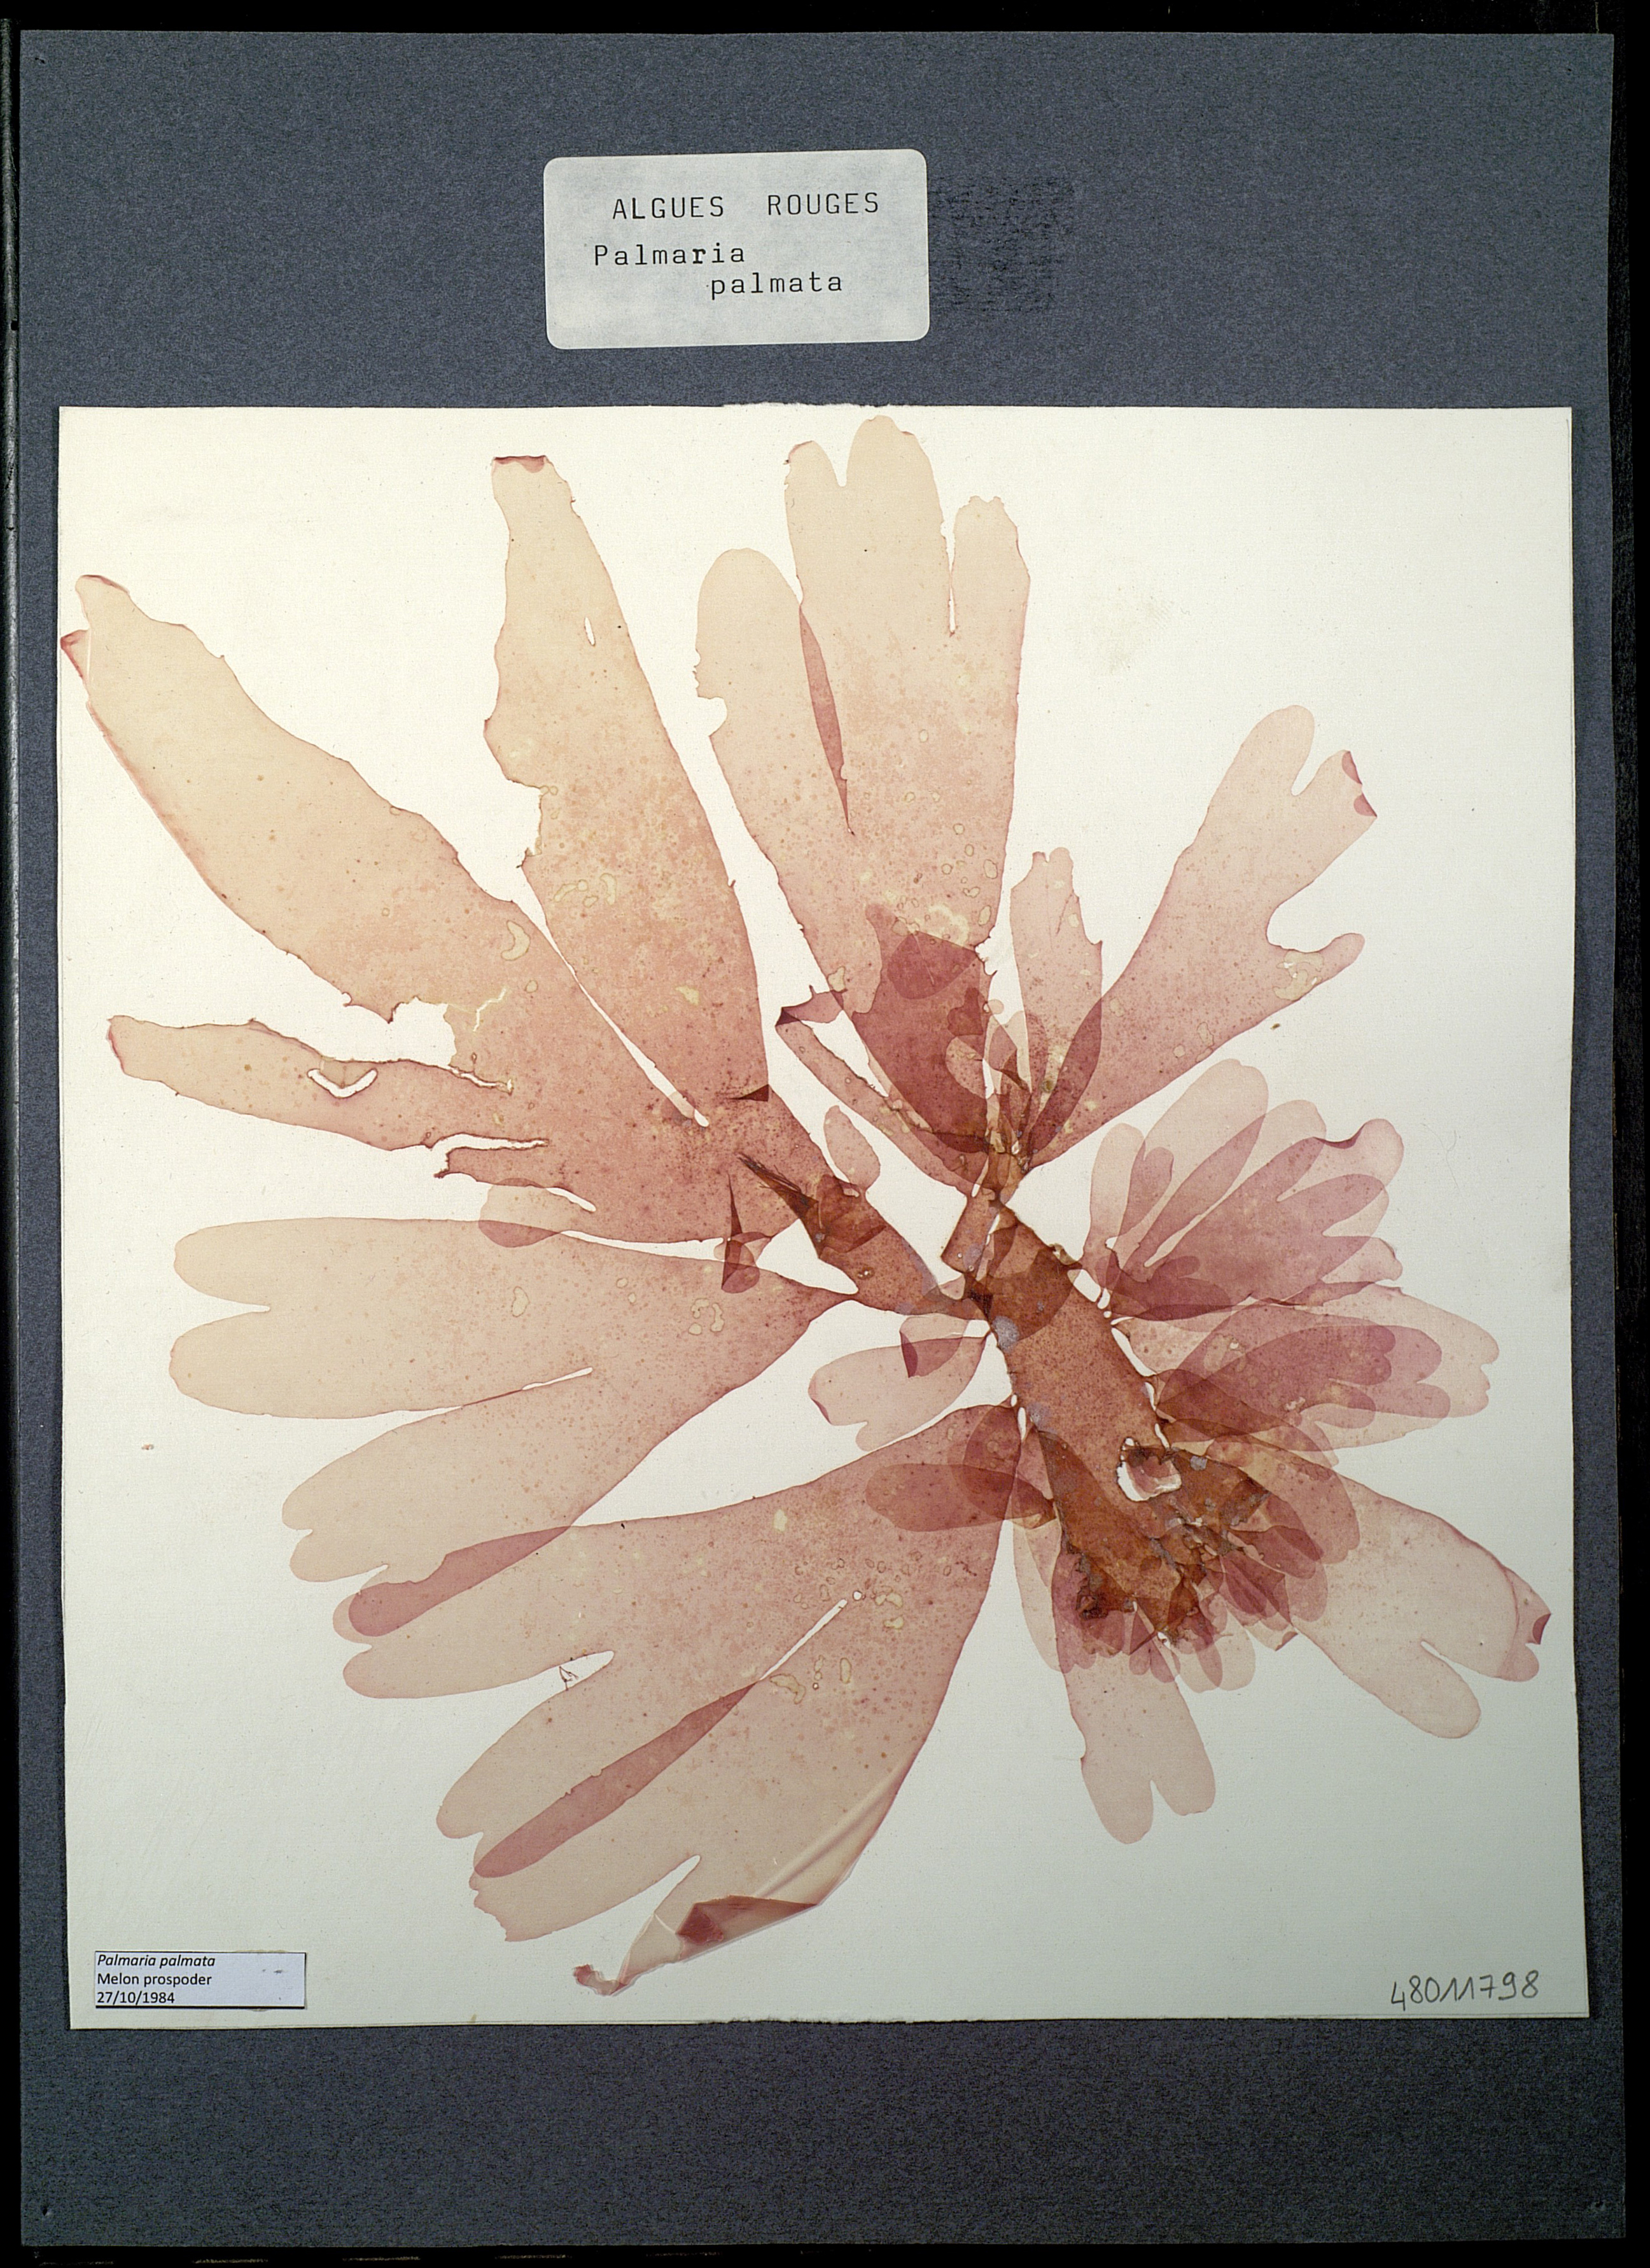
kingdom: Plantae
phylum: Rhodophyta
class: Florideophyceae
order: Palmariales
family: Palmariaceae
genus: Palmaria
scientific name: Palmaria palmata
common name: Dulse
